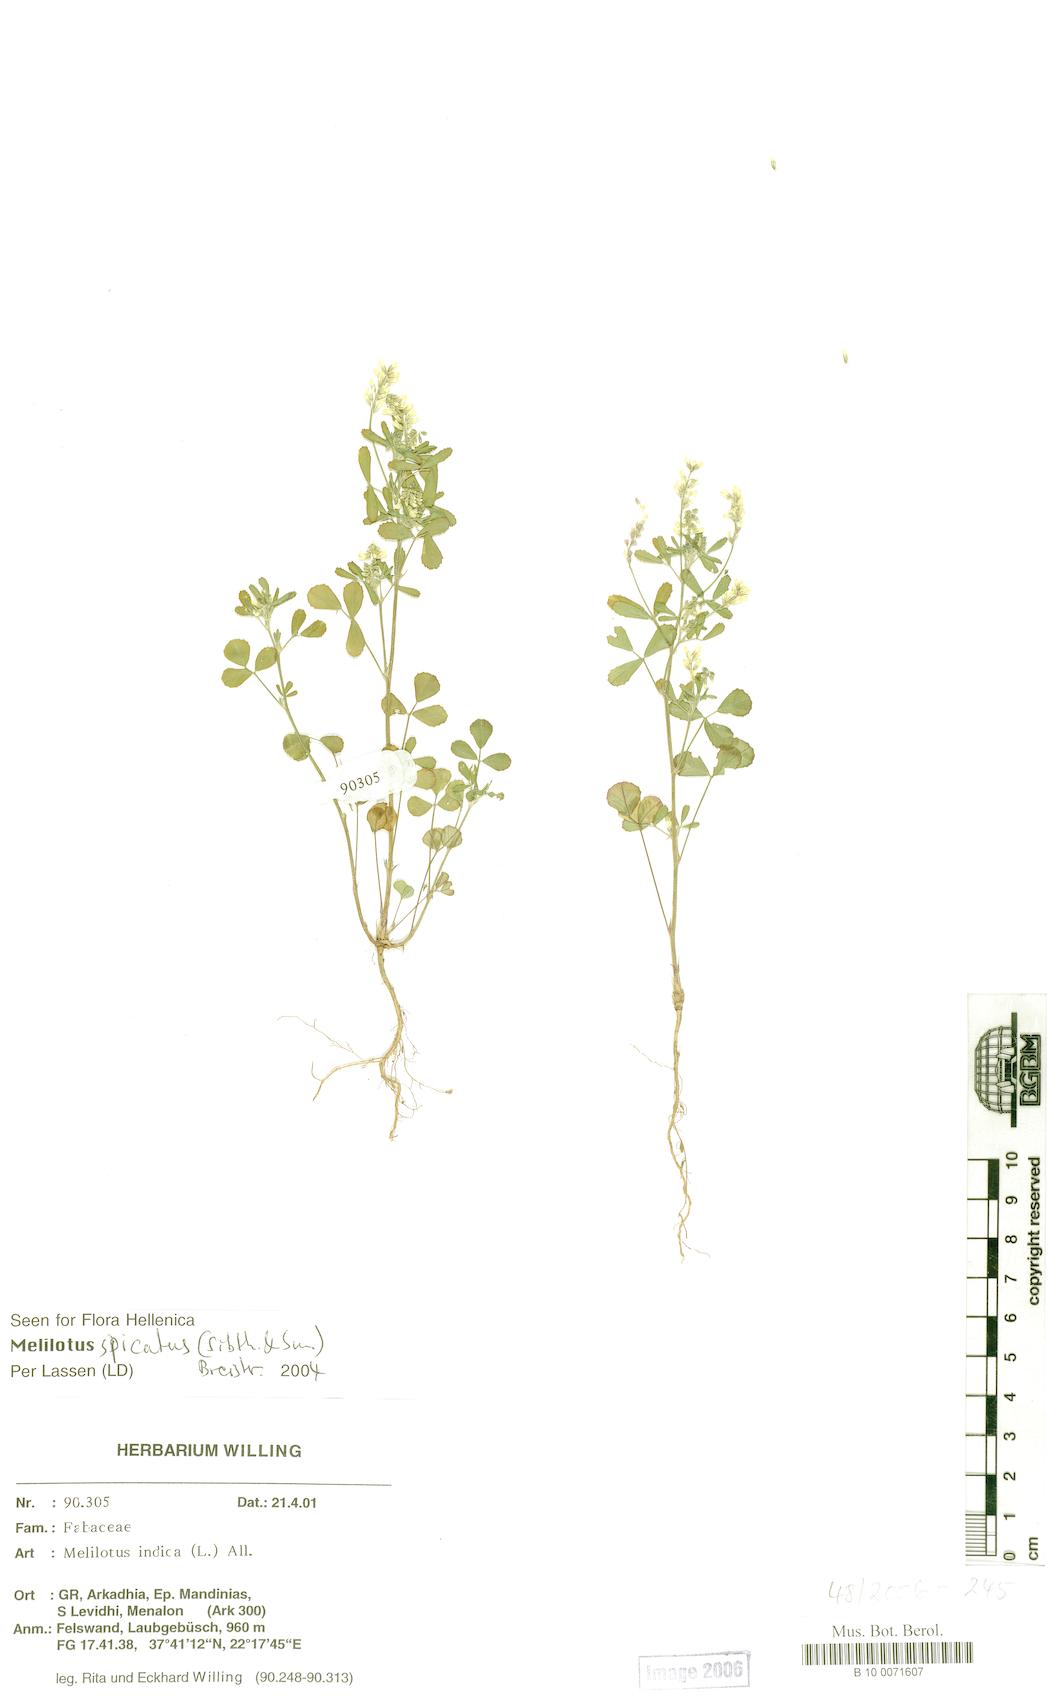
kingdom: Plantae
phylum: Tracheophyta
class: Magnoliopsida
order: Fabales
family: Fabaceae
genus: Melilotus
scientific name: Melilotus indicus
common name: Small melilot
